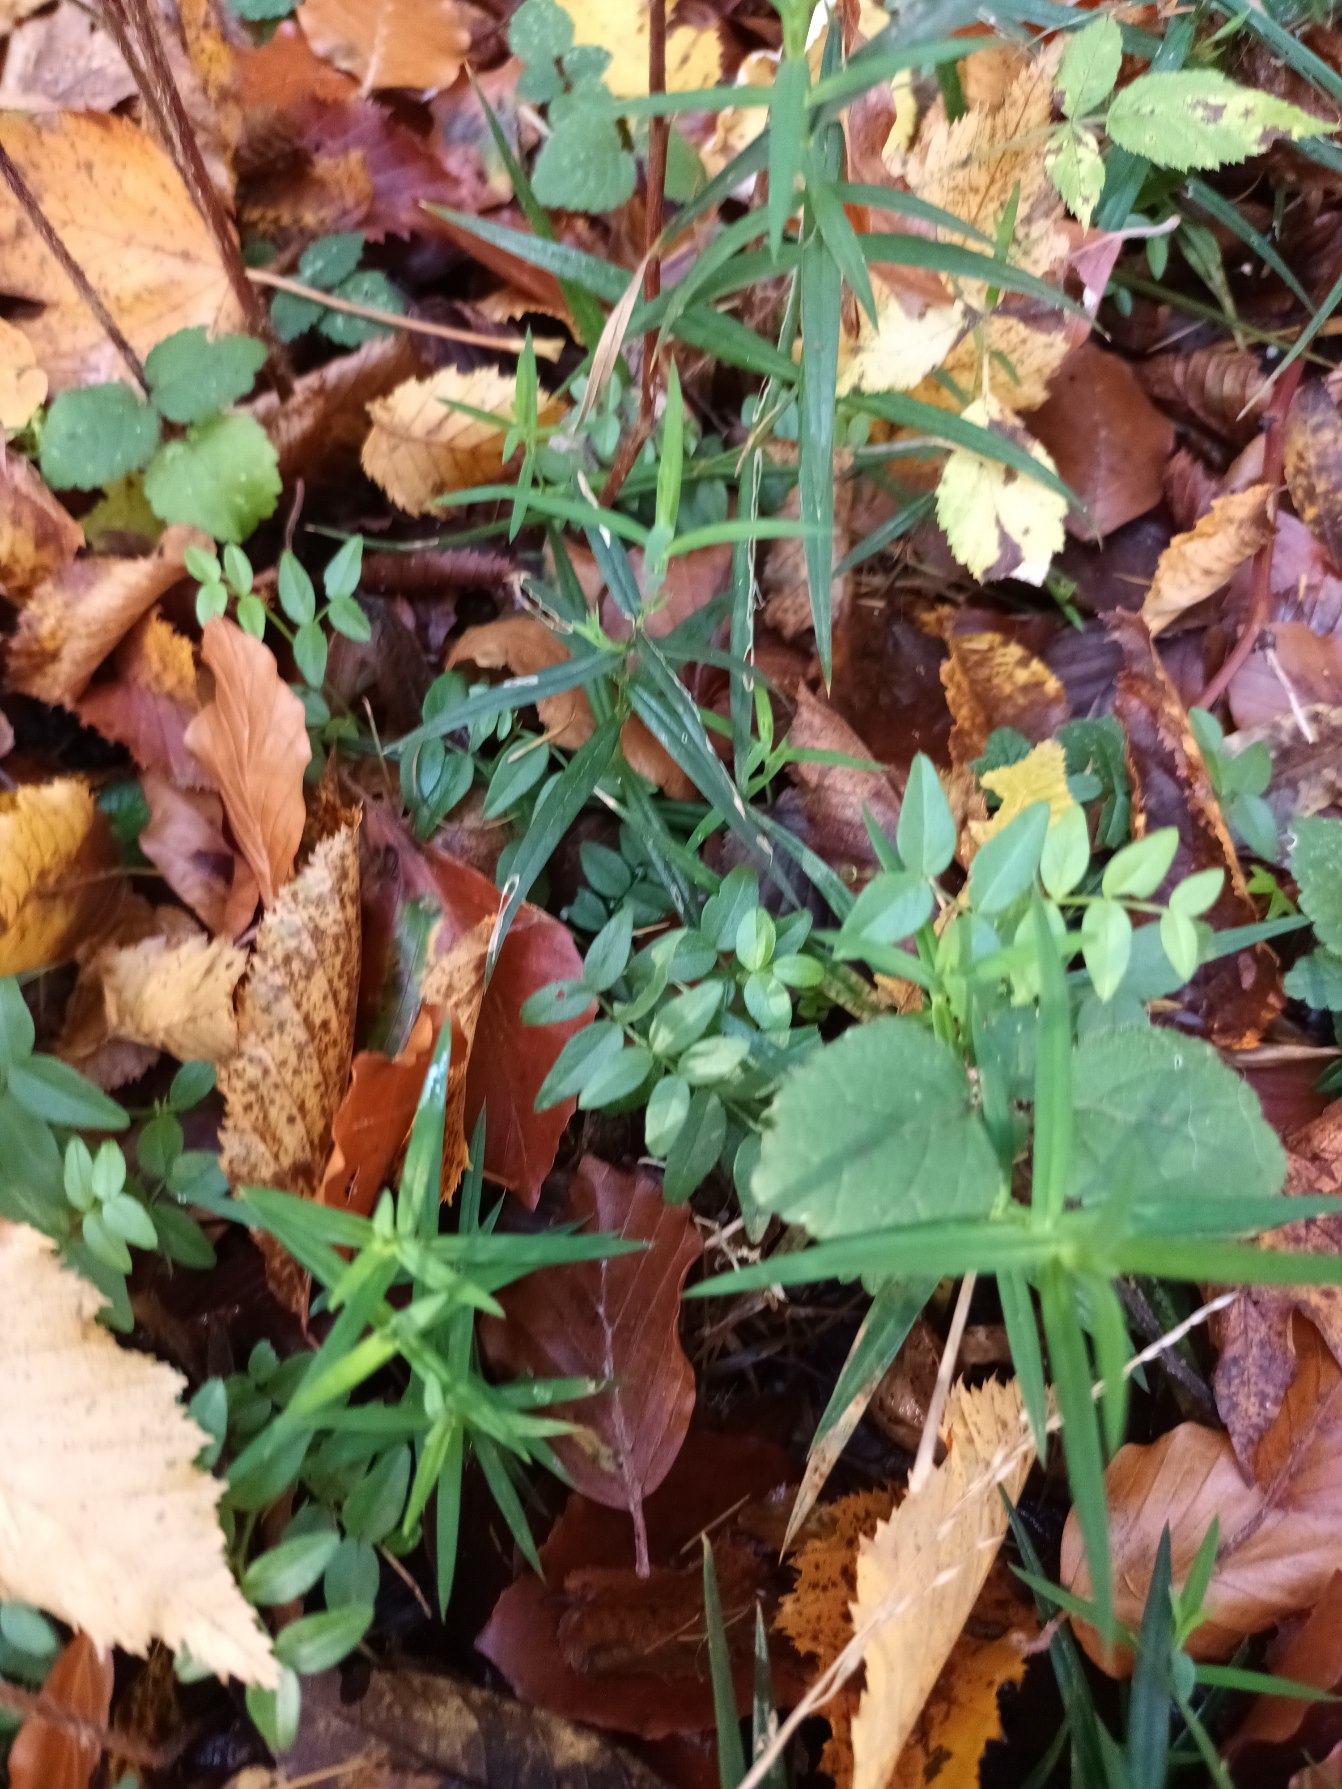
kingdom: Plantae
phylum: Tracheophyta
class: Magnoliopsida
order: Fabales
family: Fabaceae
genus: Vicia
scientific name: Vicia sepium
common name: Gærde-vikke
